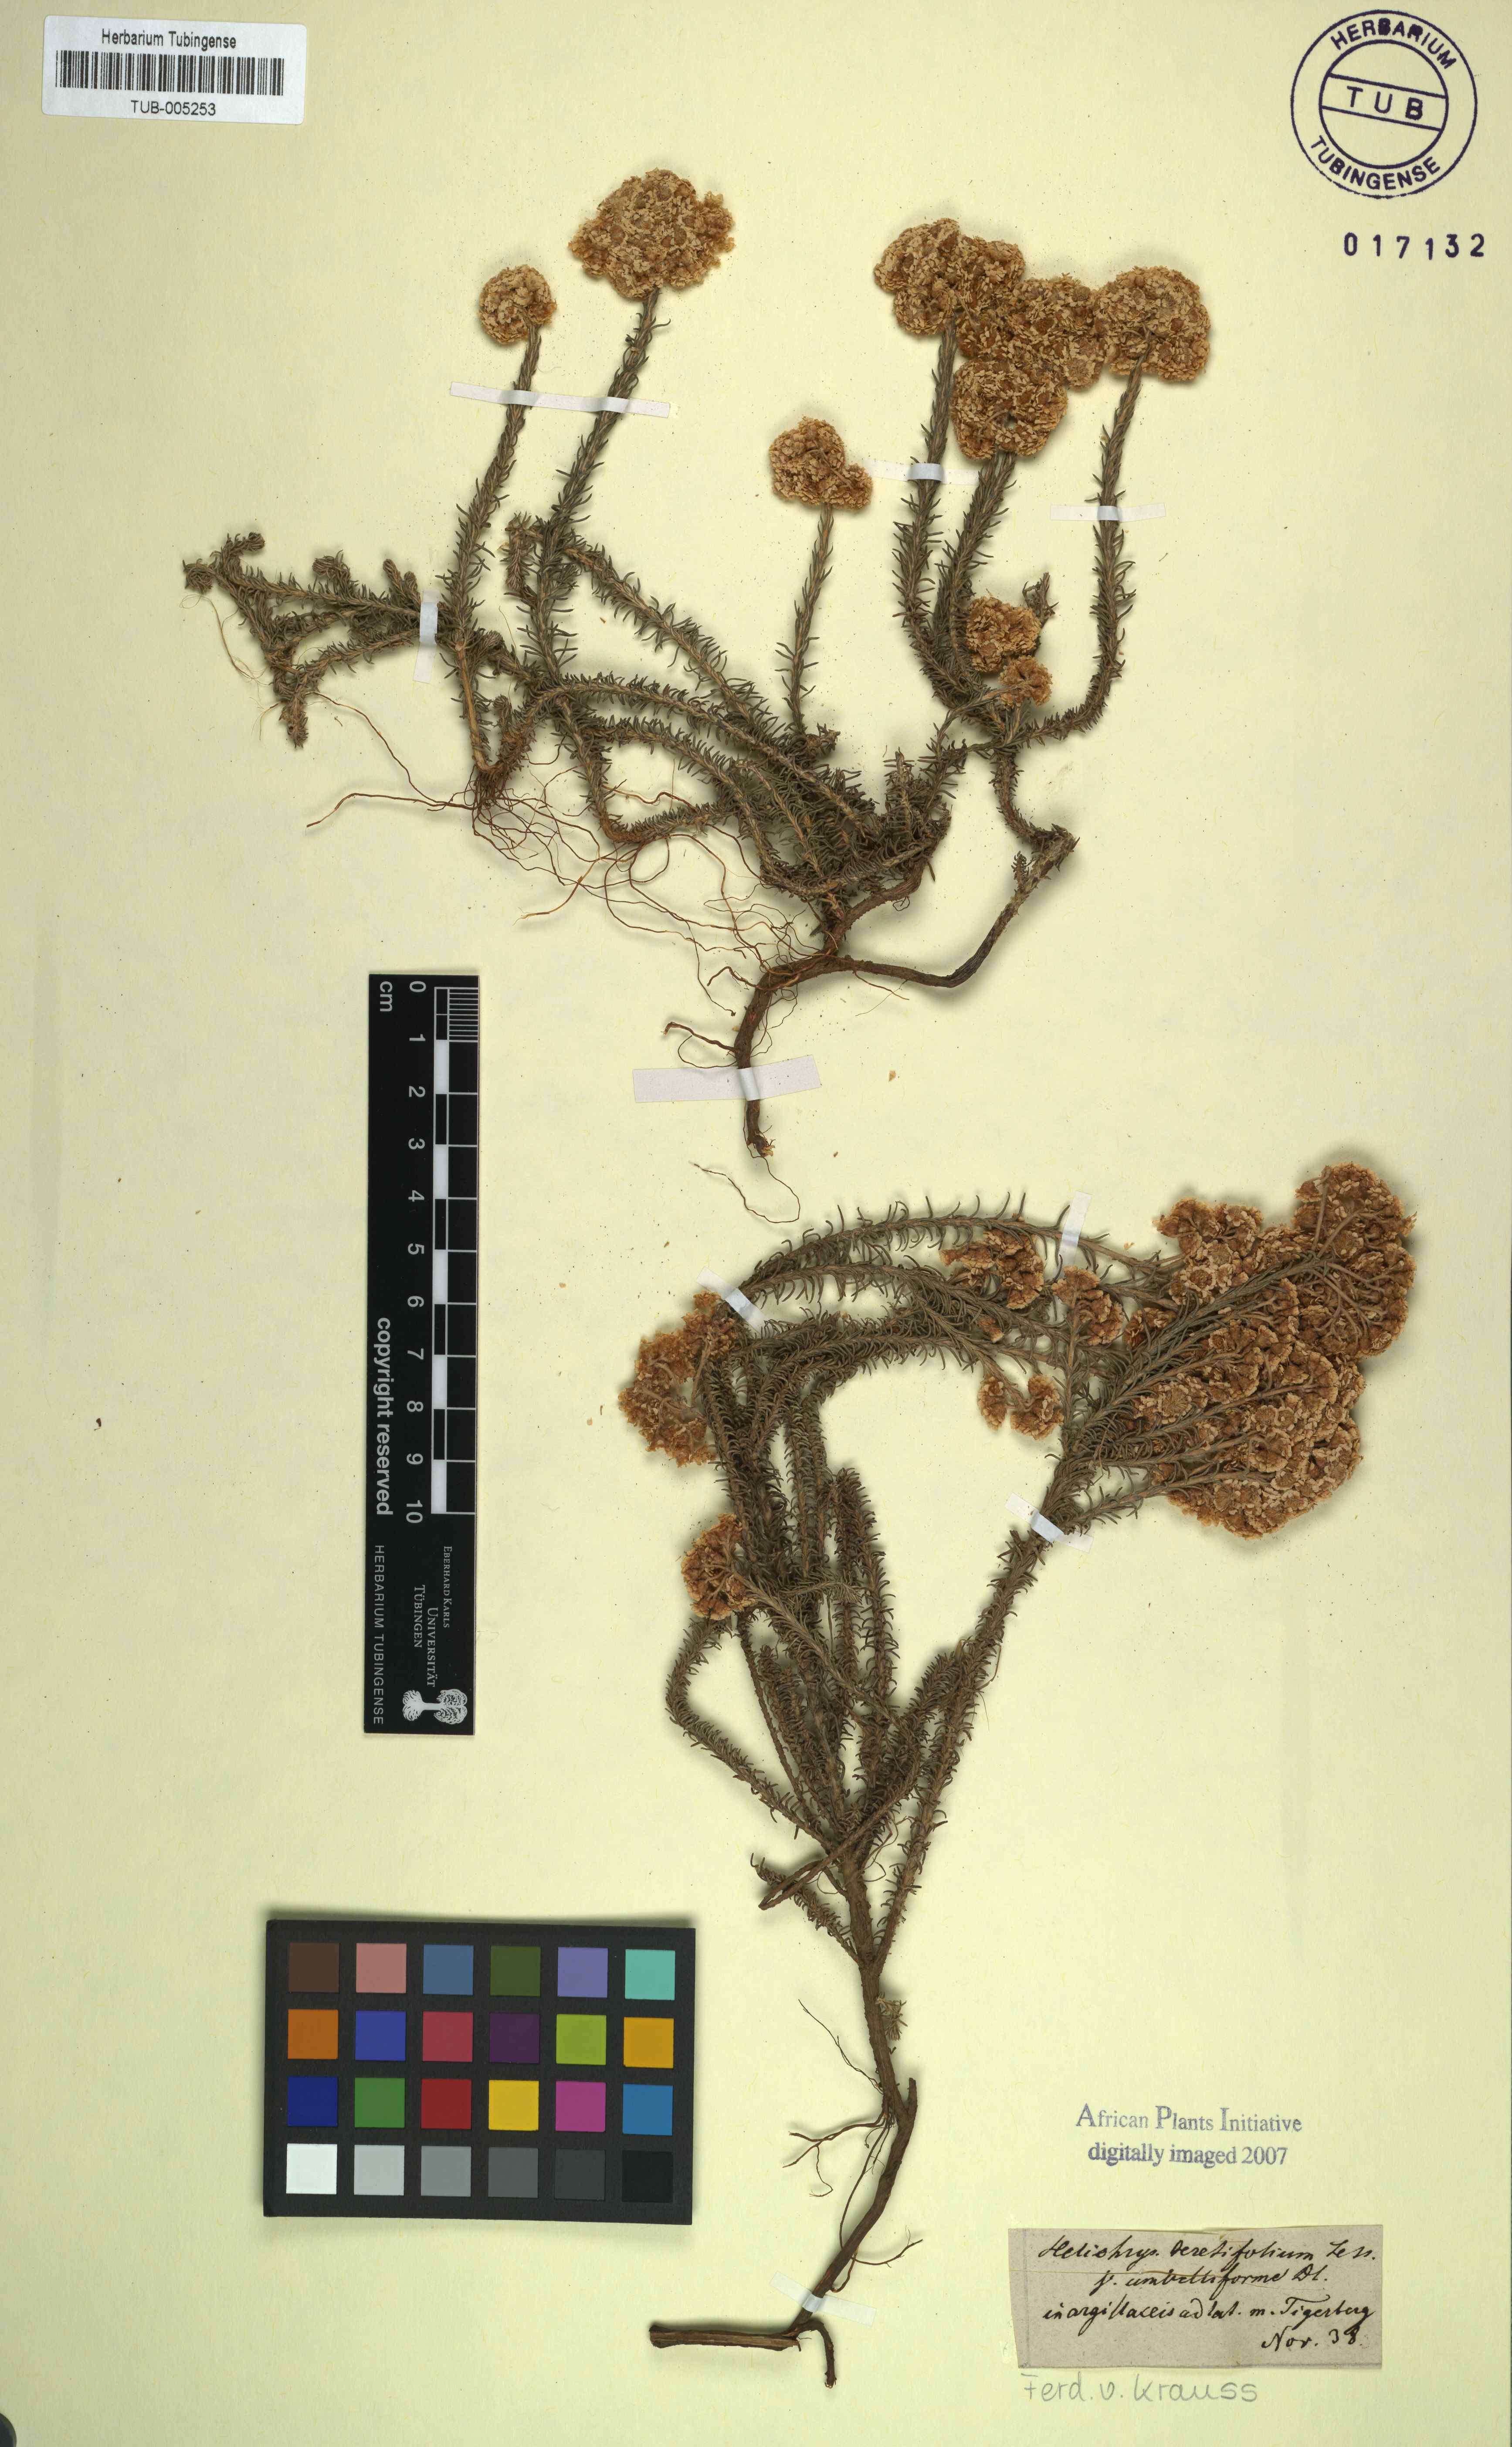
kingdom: Plantae
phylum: Tracheophyta
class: Magnoliopsida
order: Asterales
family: Asteraceae
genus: Helichrysum
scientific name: Helichrysum
